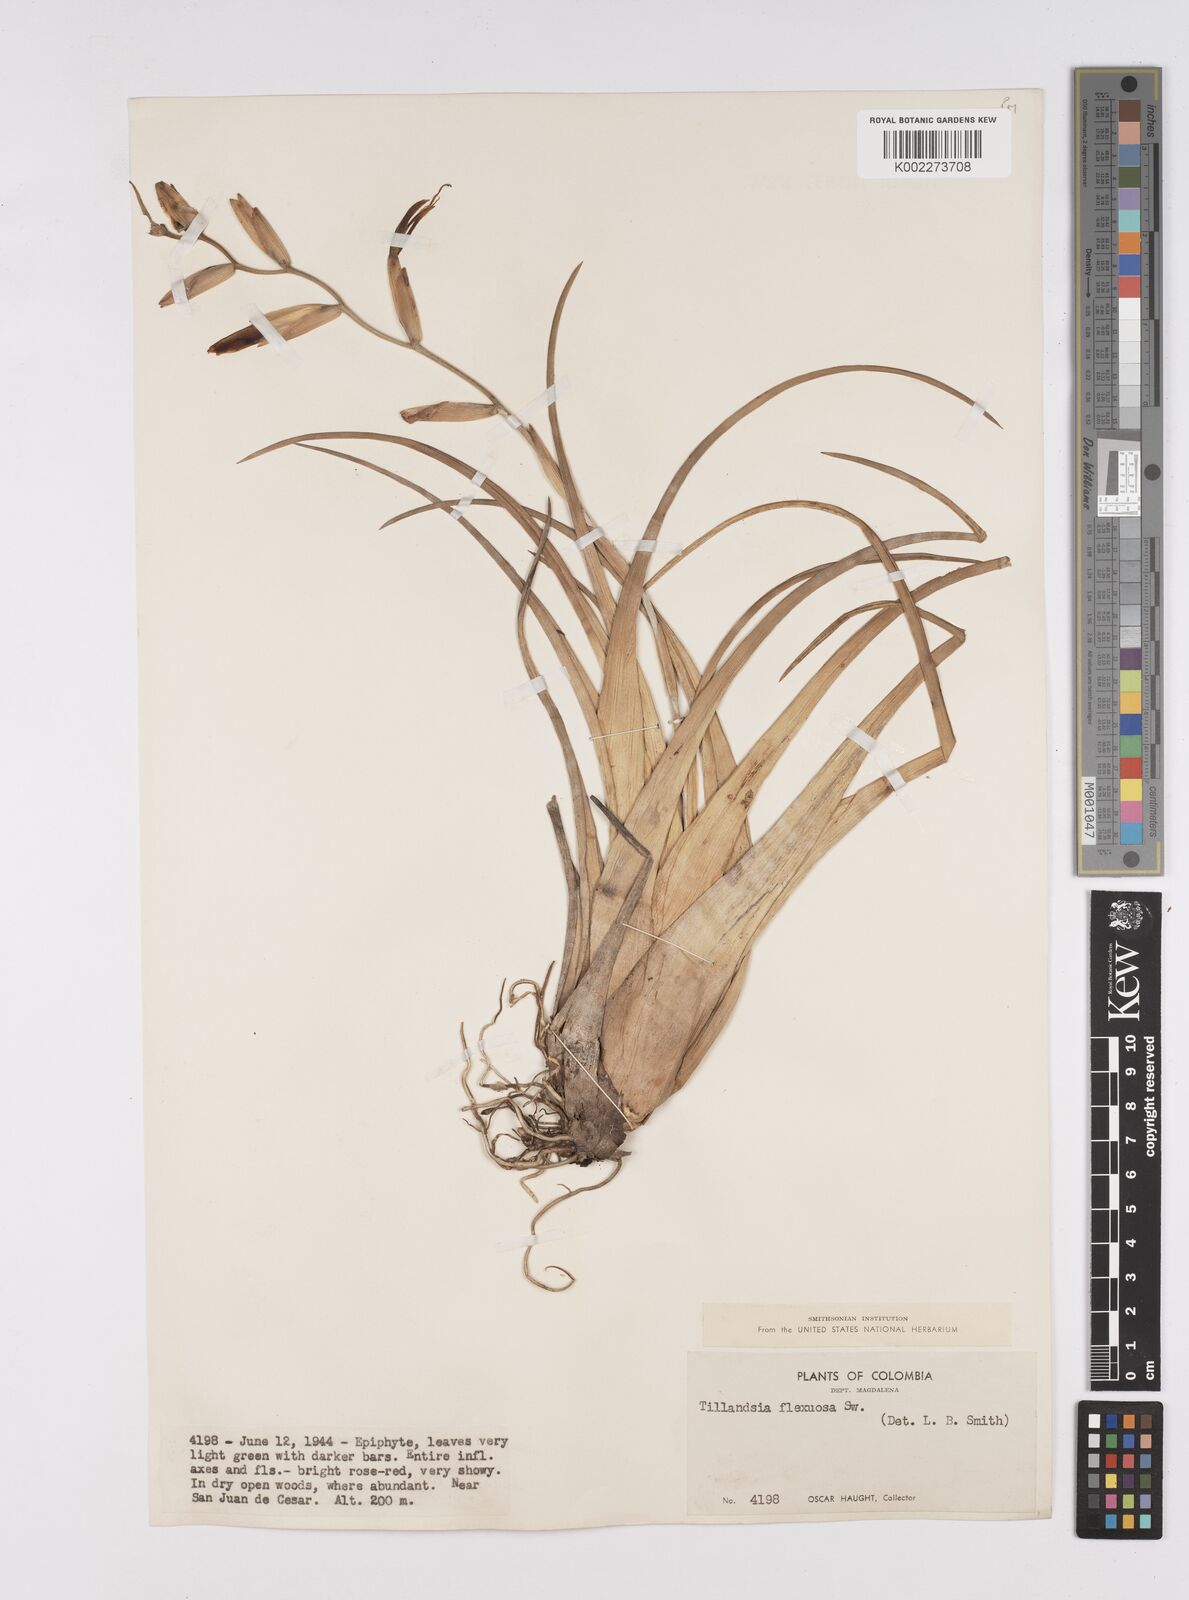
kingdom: Plantae
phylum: Tracheophyta
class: Liliopsida
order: Poales
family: Bromeliaceae
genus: Tillandsia
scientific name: Tillandsia flexuosa
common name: Banded airplant
